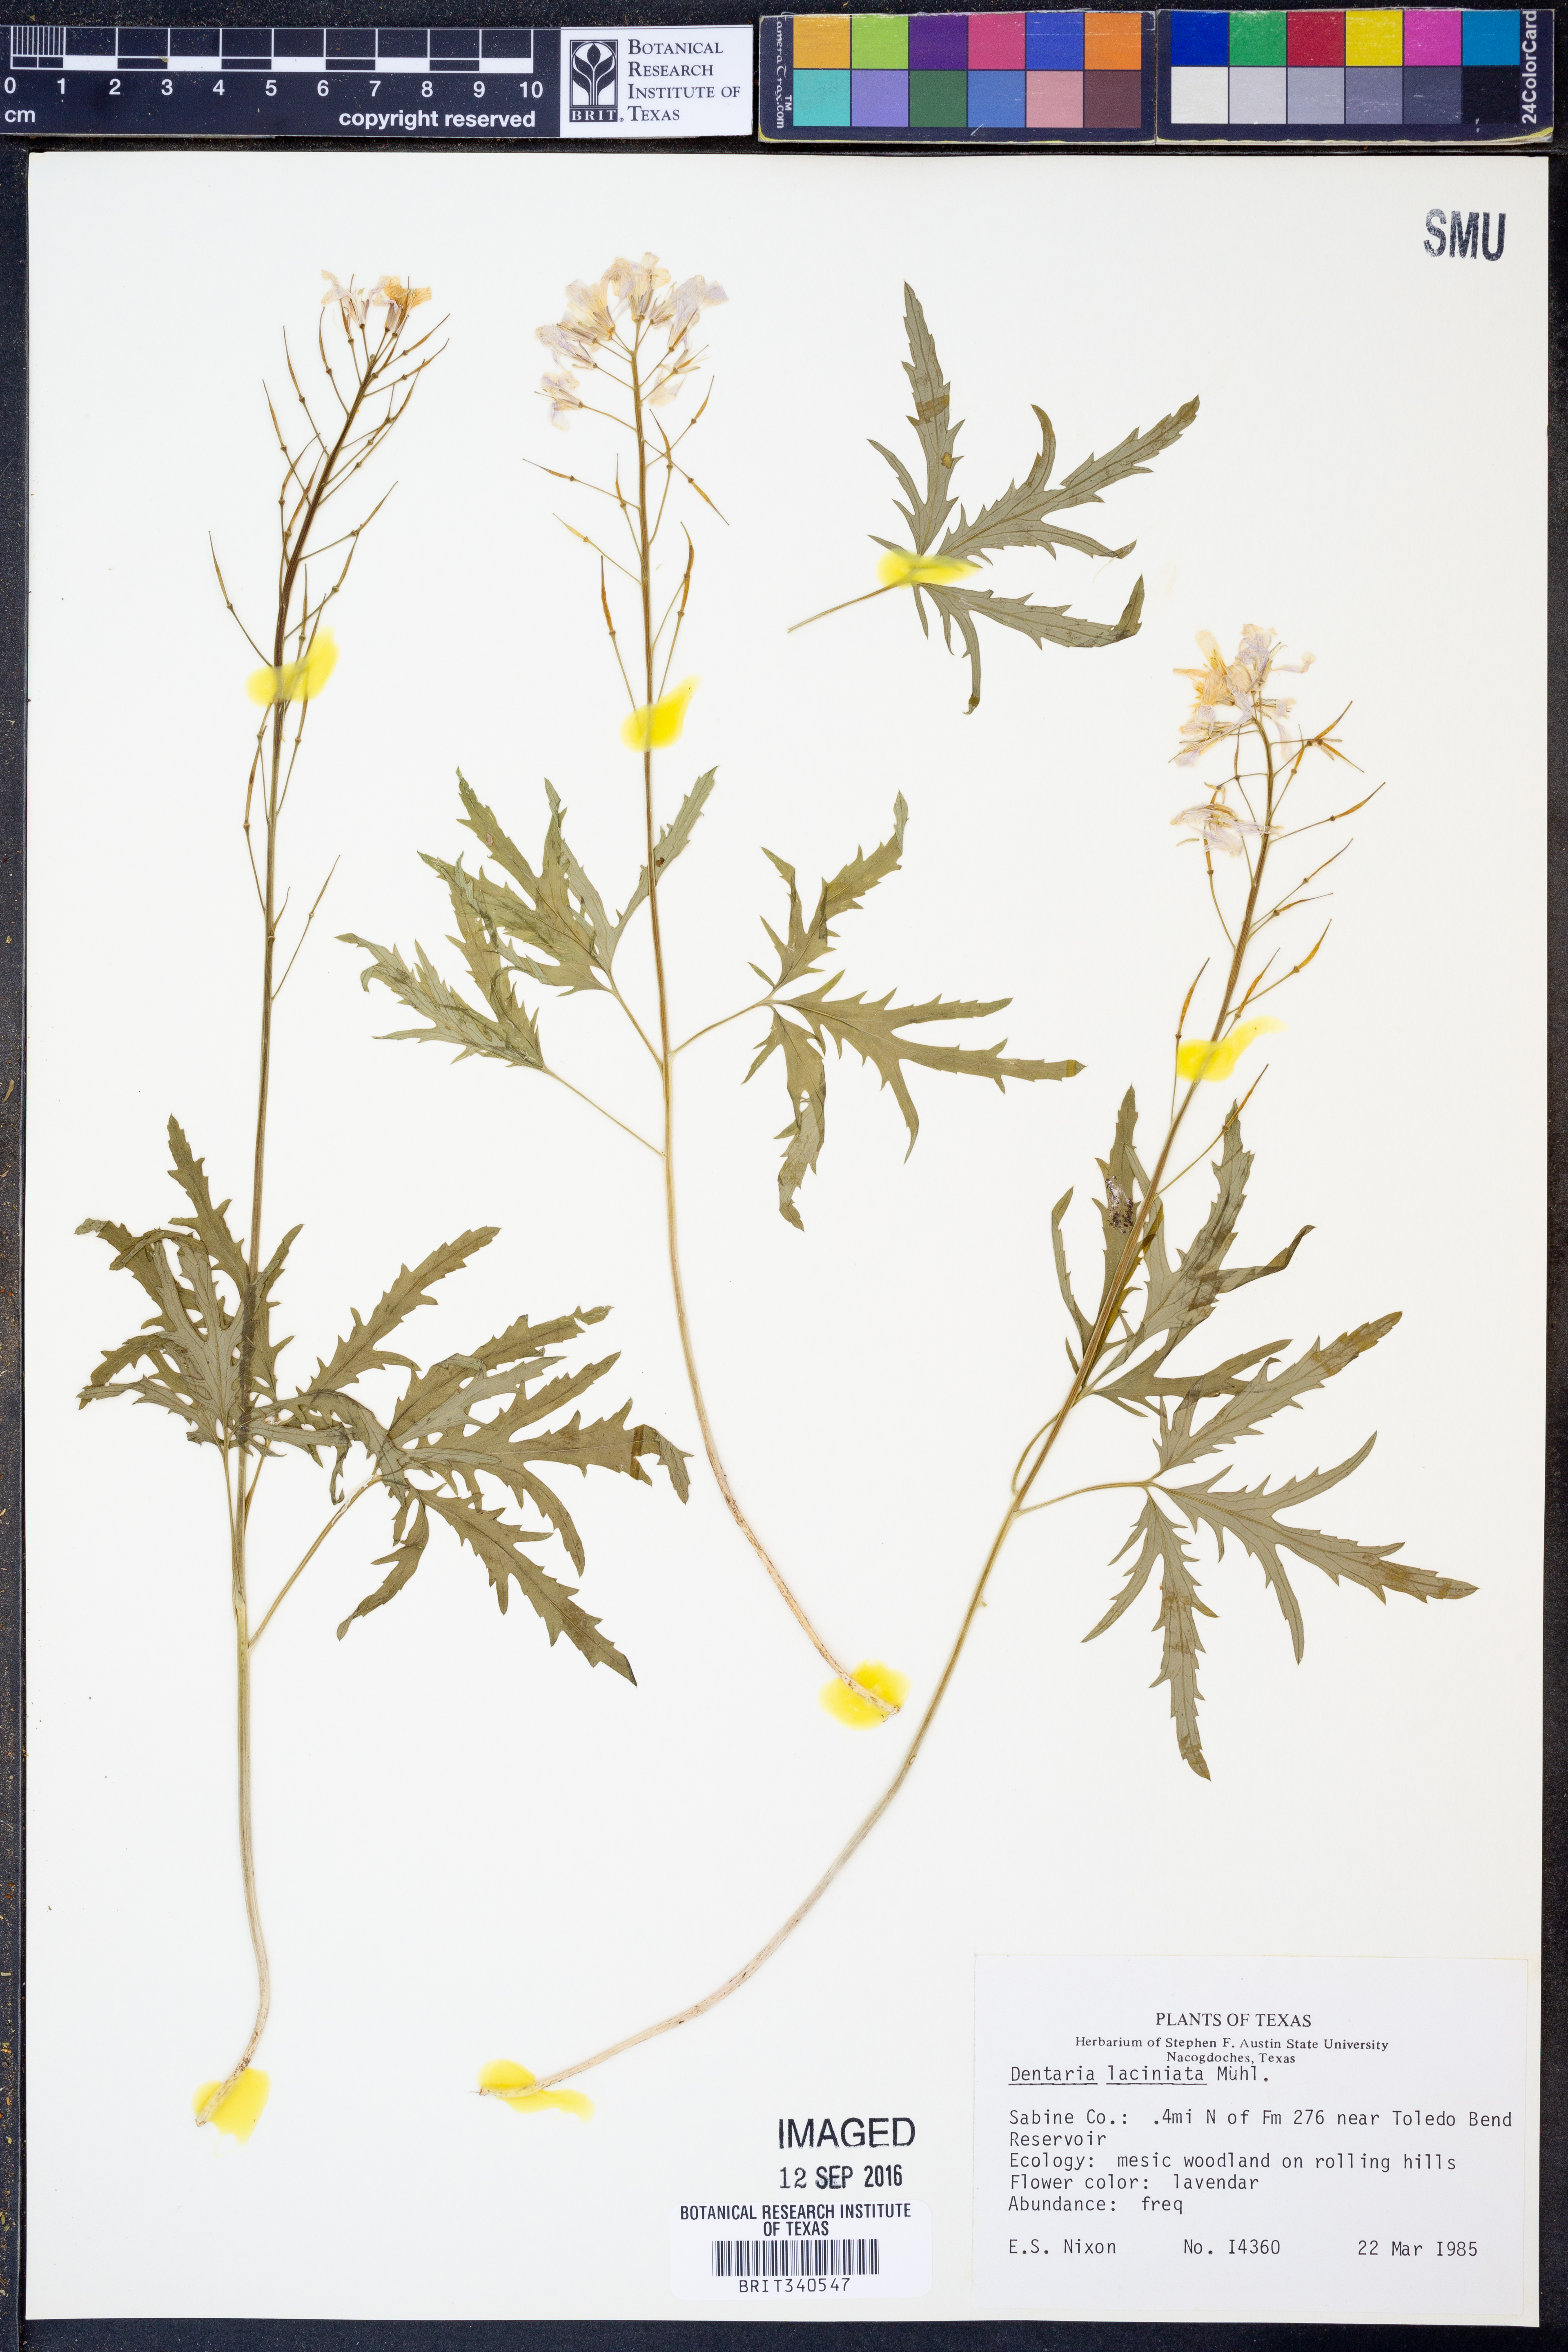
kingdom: Plantae
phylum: Tracheophyta
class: Magnoliopsida
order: Brassicales
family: Brassicaceae
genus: Cardamine
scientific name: Cardamine concatenata
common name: Cut-leaf toothcup
